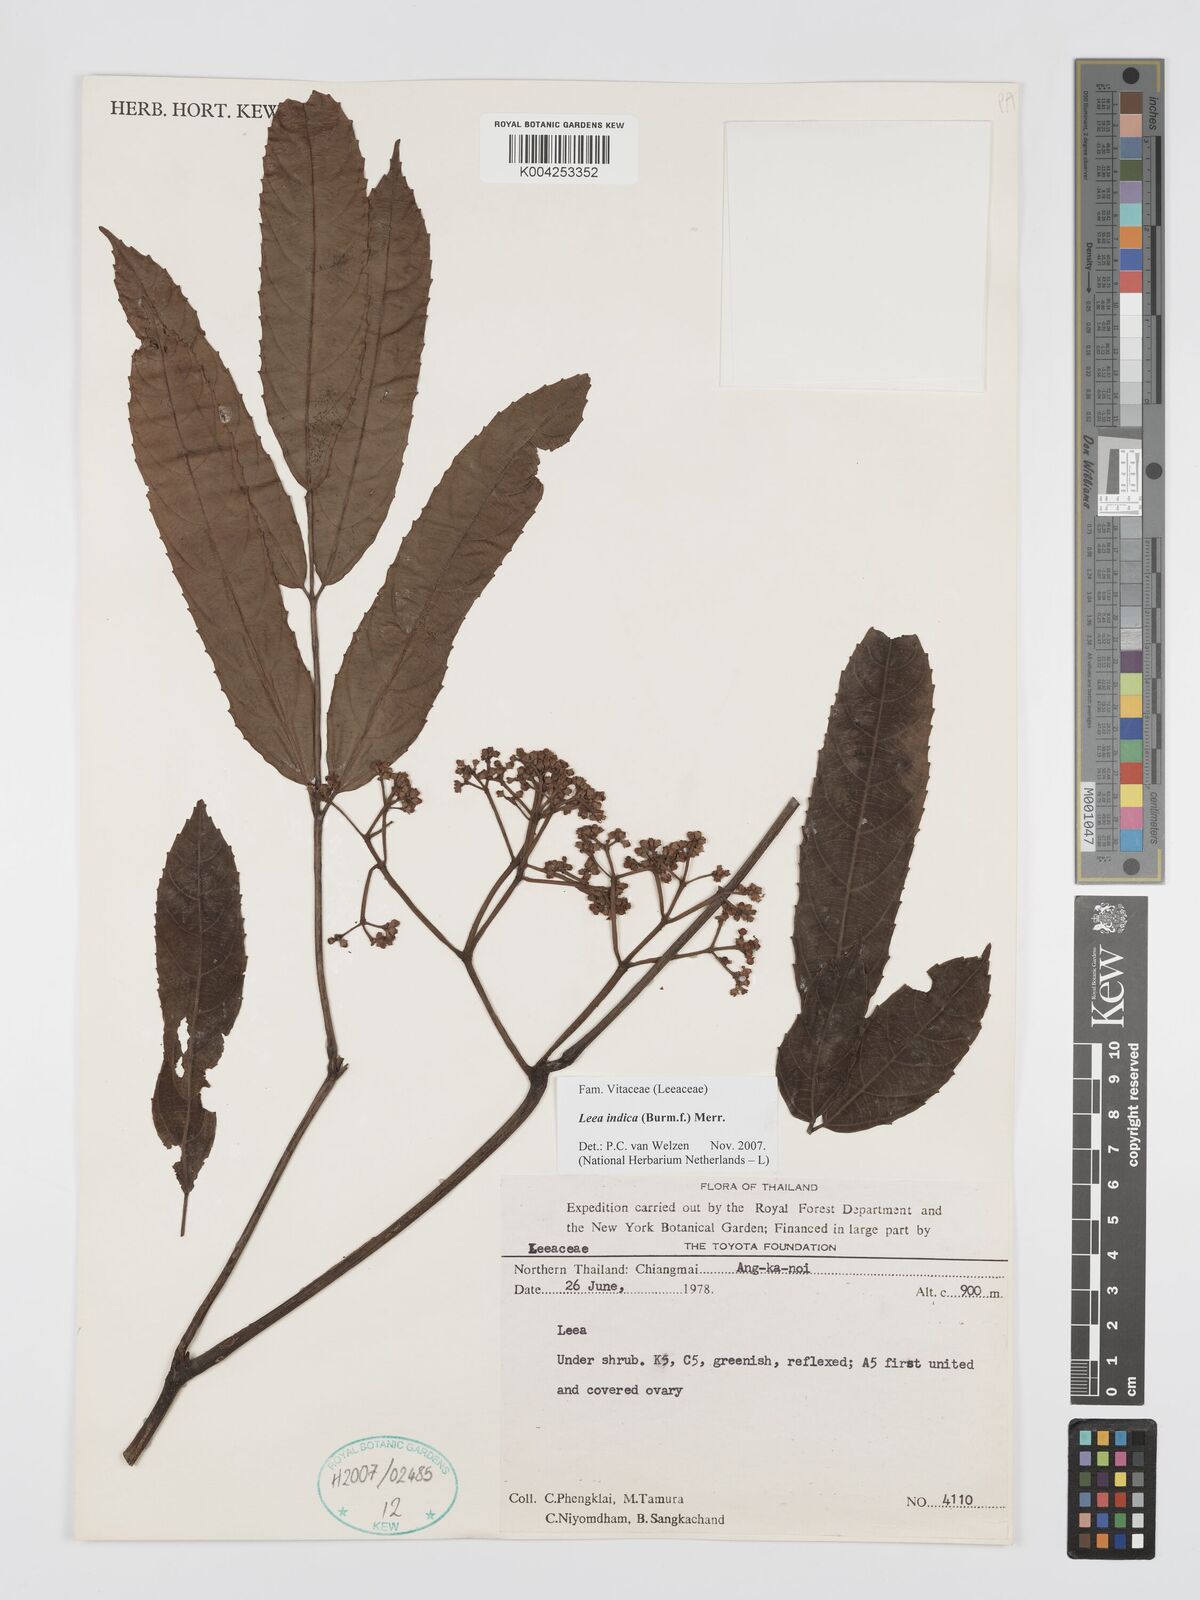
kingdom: Plantae
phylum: Tracheophyta
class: Magnoliopsida
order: Vitales
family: Vitaceae
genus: Leea
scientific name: Leea indica
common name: Bandicoot-berry
